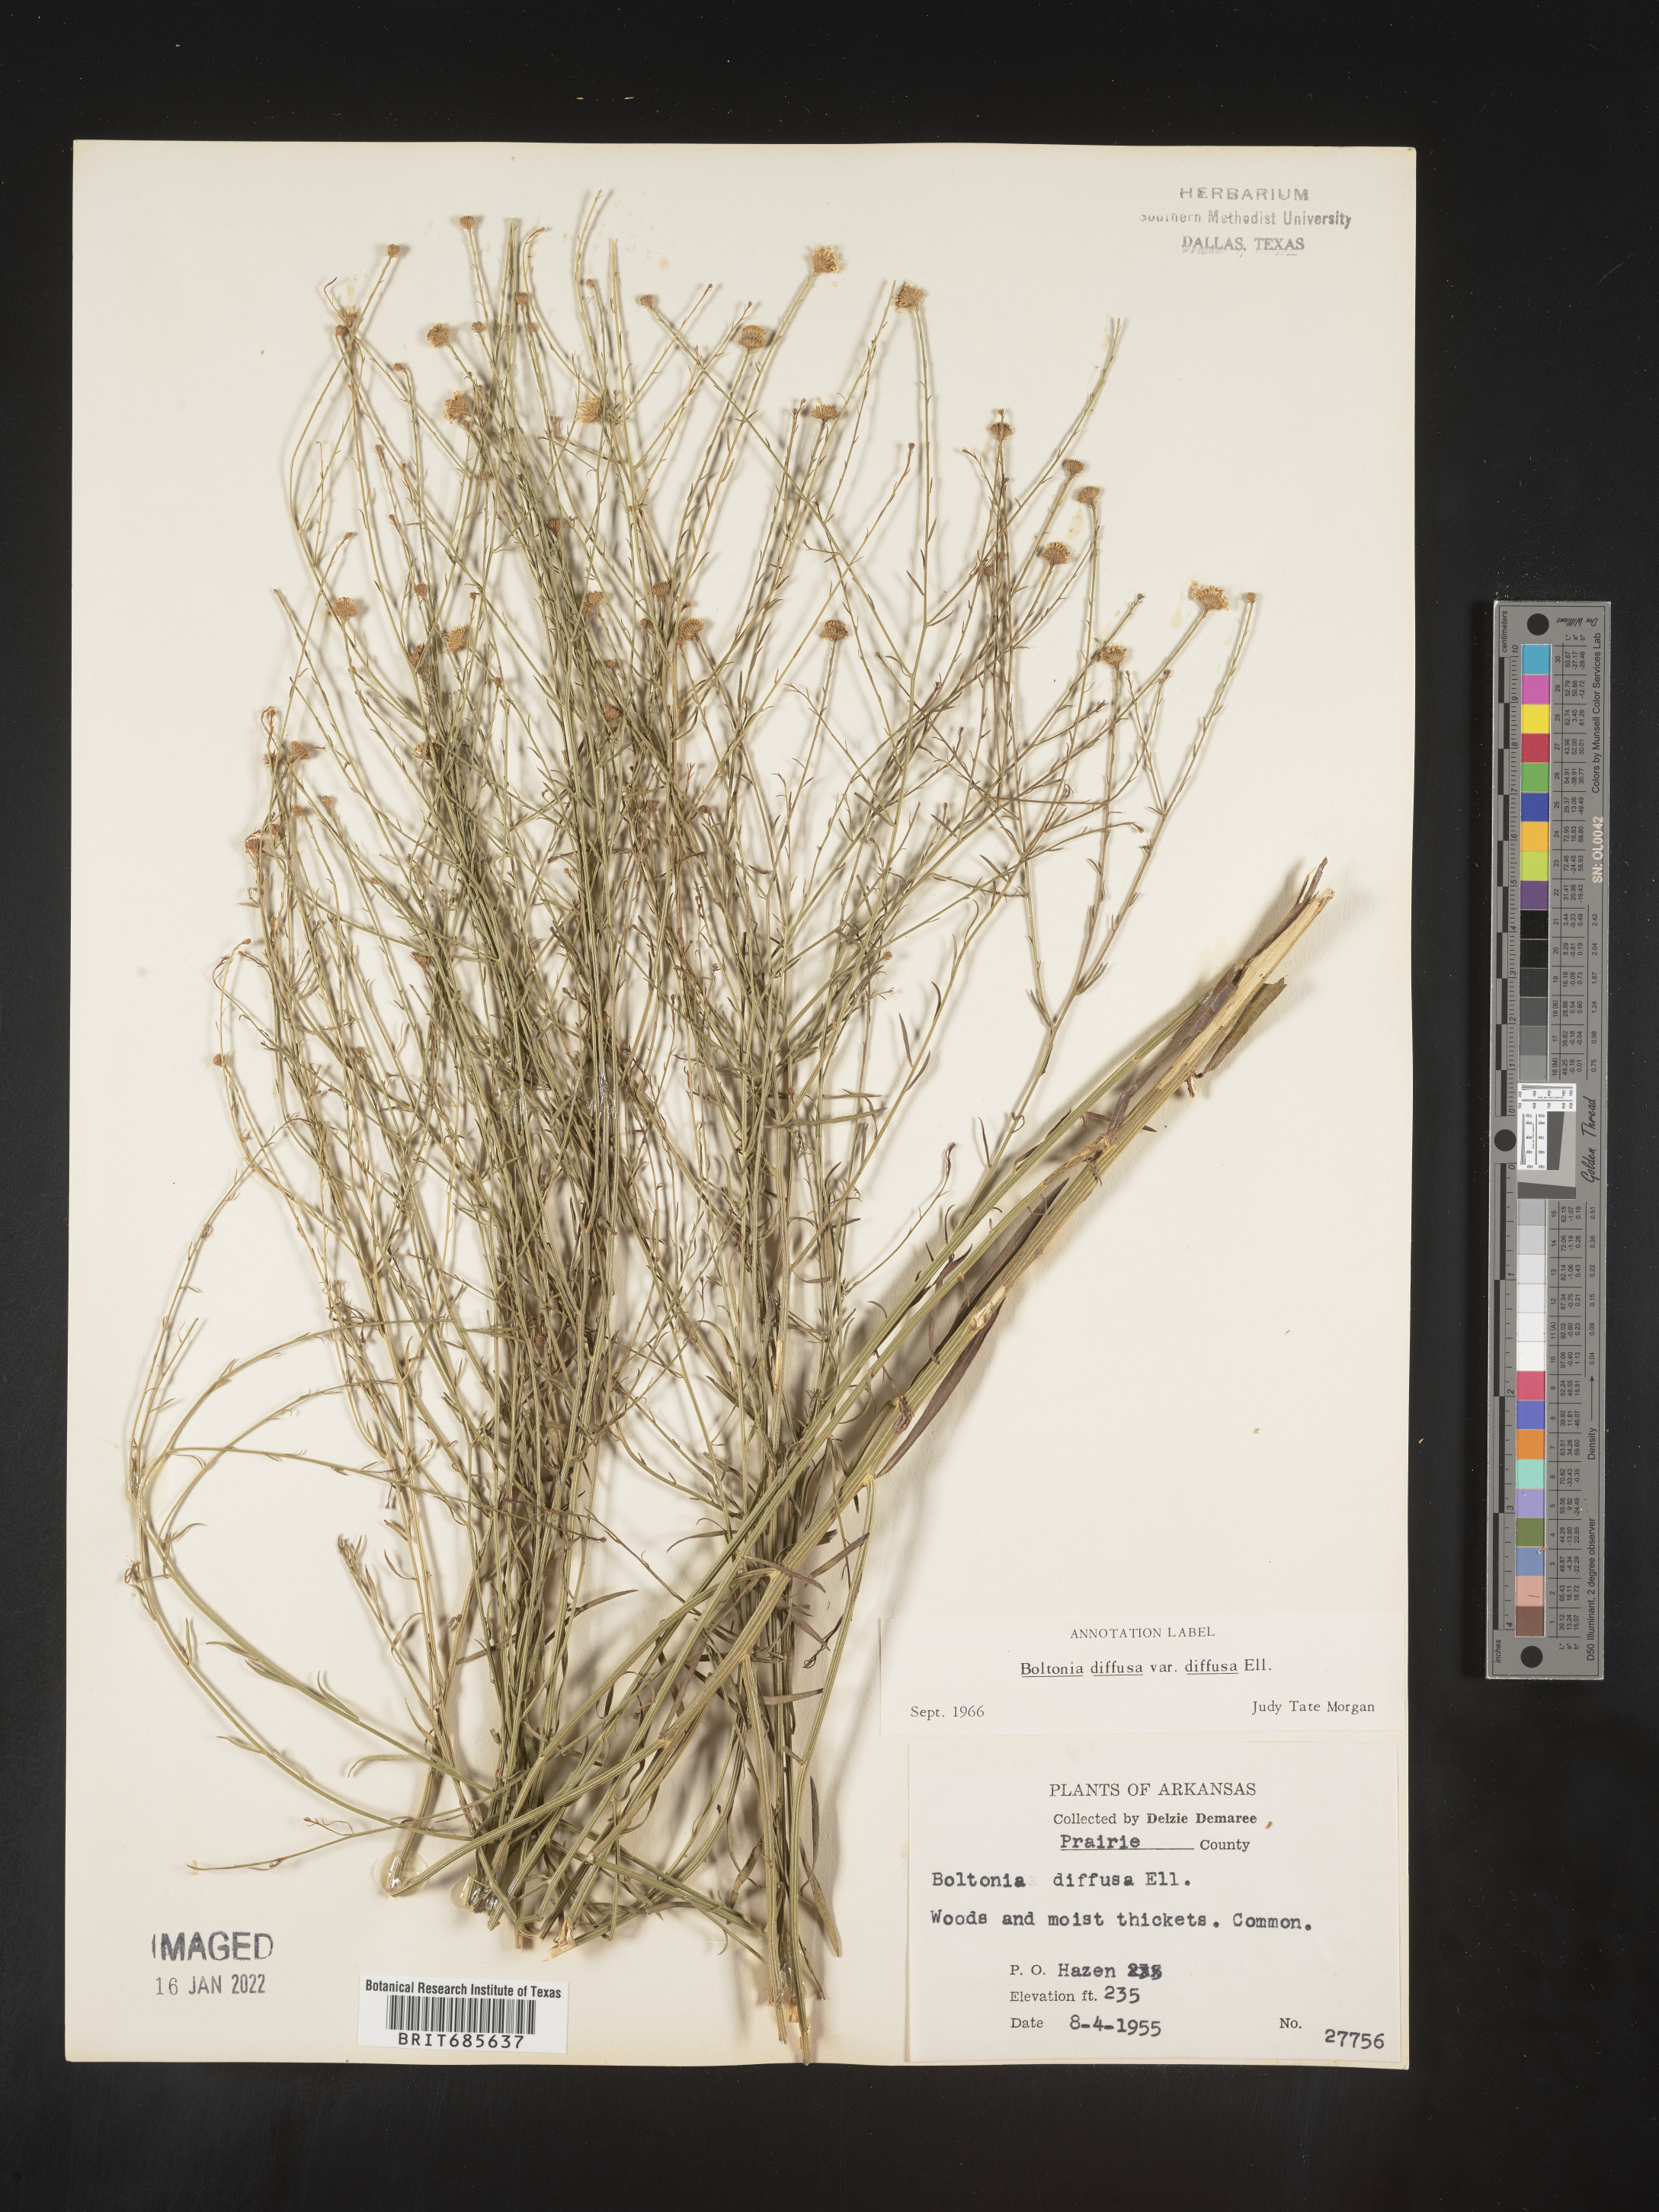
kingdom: Plantae
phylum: Tracheophyta
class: Magnoliopsida
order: Asterales
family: Asteraceae
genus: Boltonia
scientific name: Boltonia diffusa
